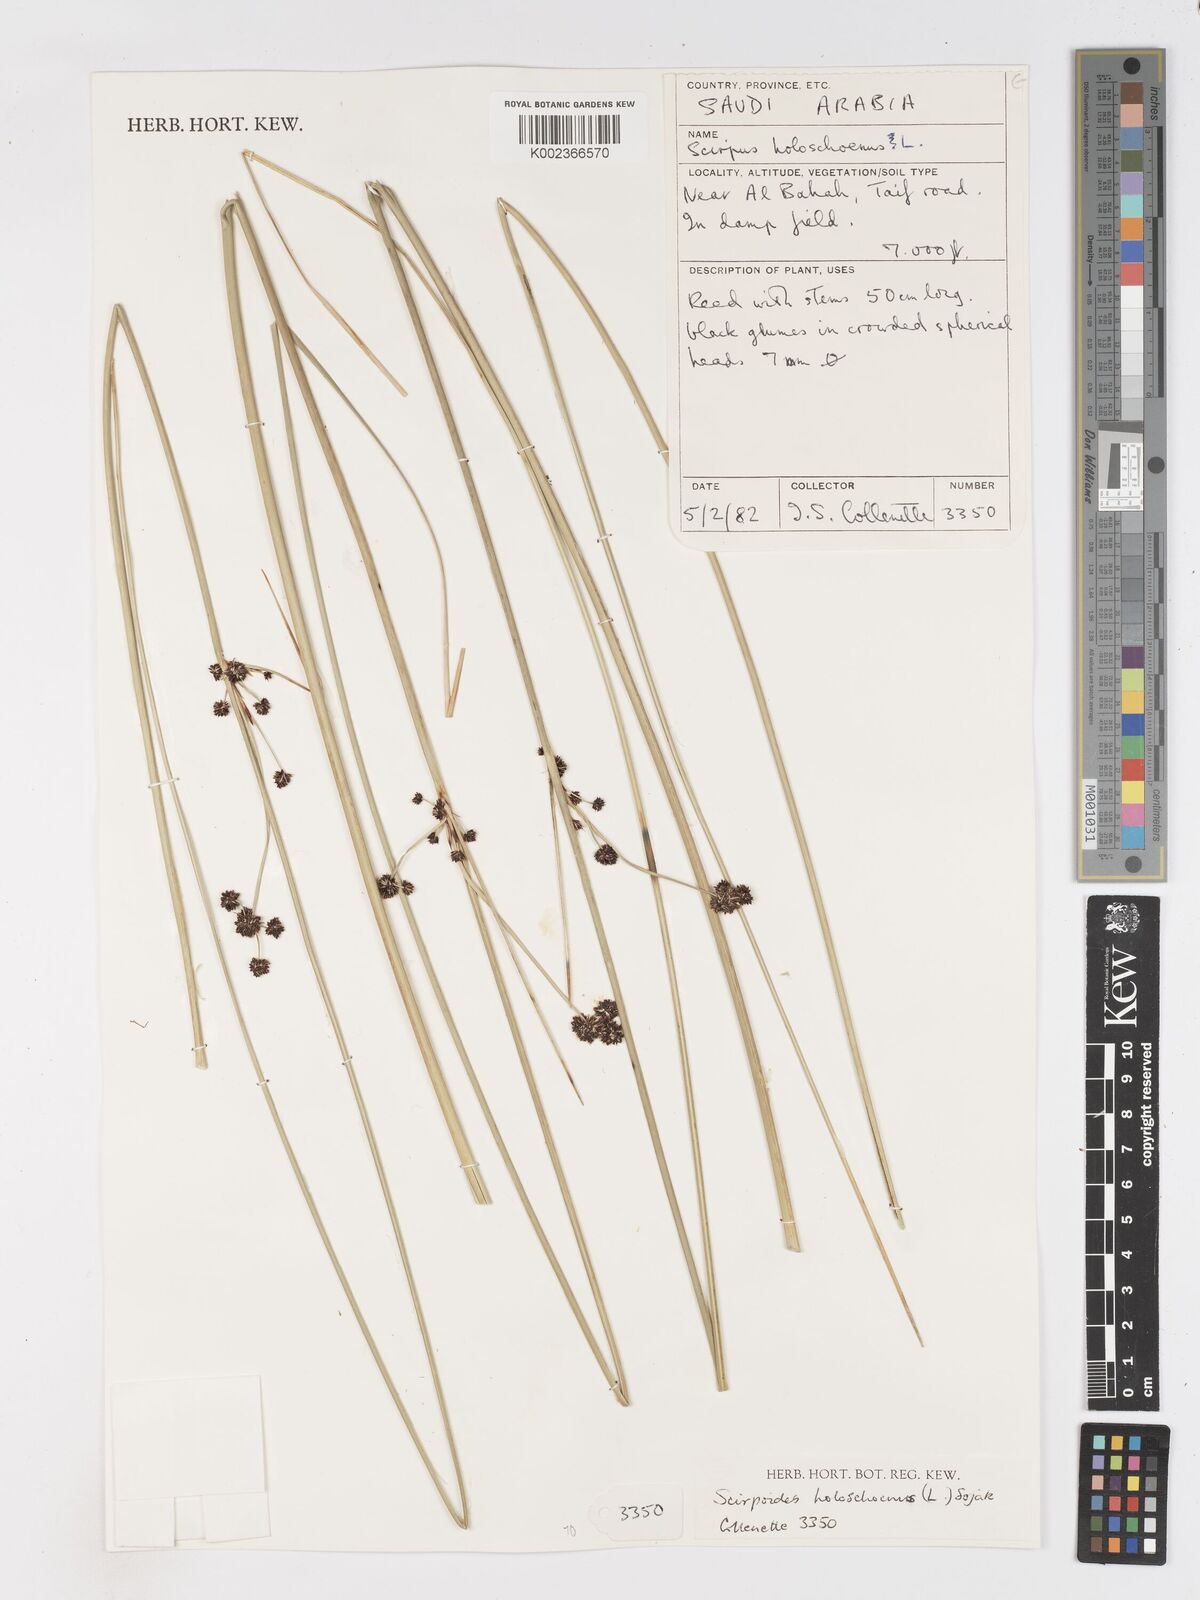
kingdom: Plantae
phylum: Tracheophyta
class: Liliopsida
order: Poales
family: Cyperaceae
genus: Scirpoides
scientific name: Scirpoides holoschoenus
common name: Round-headed club-rush
